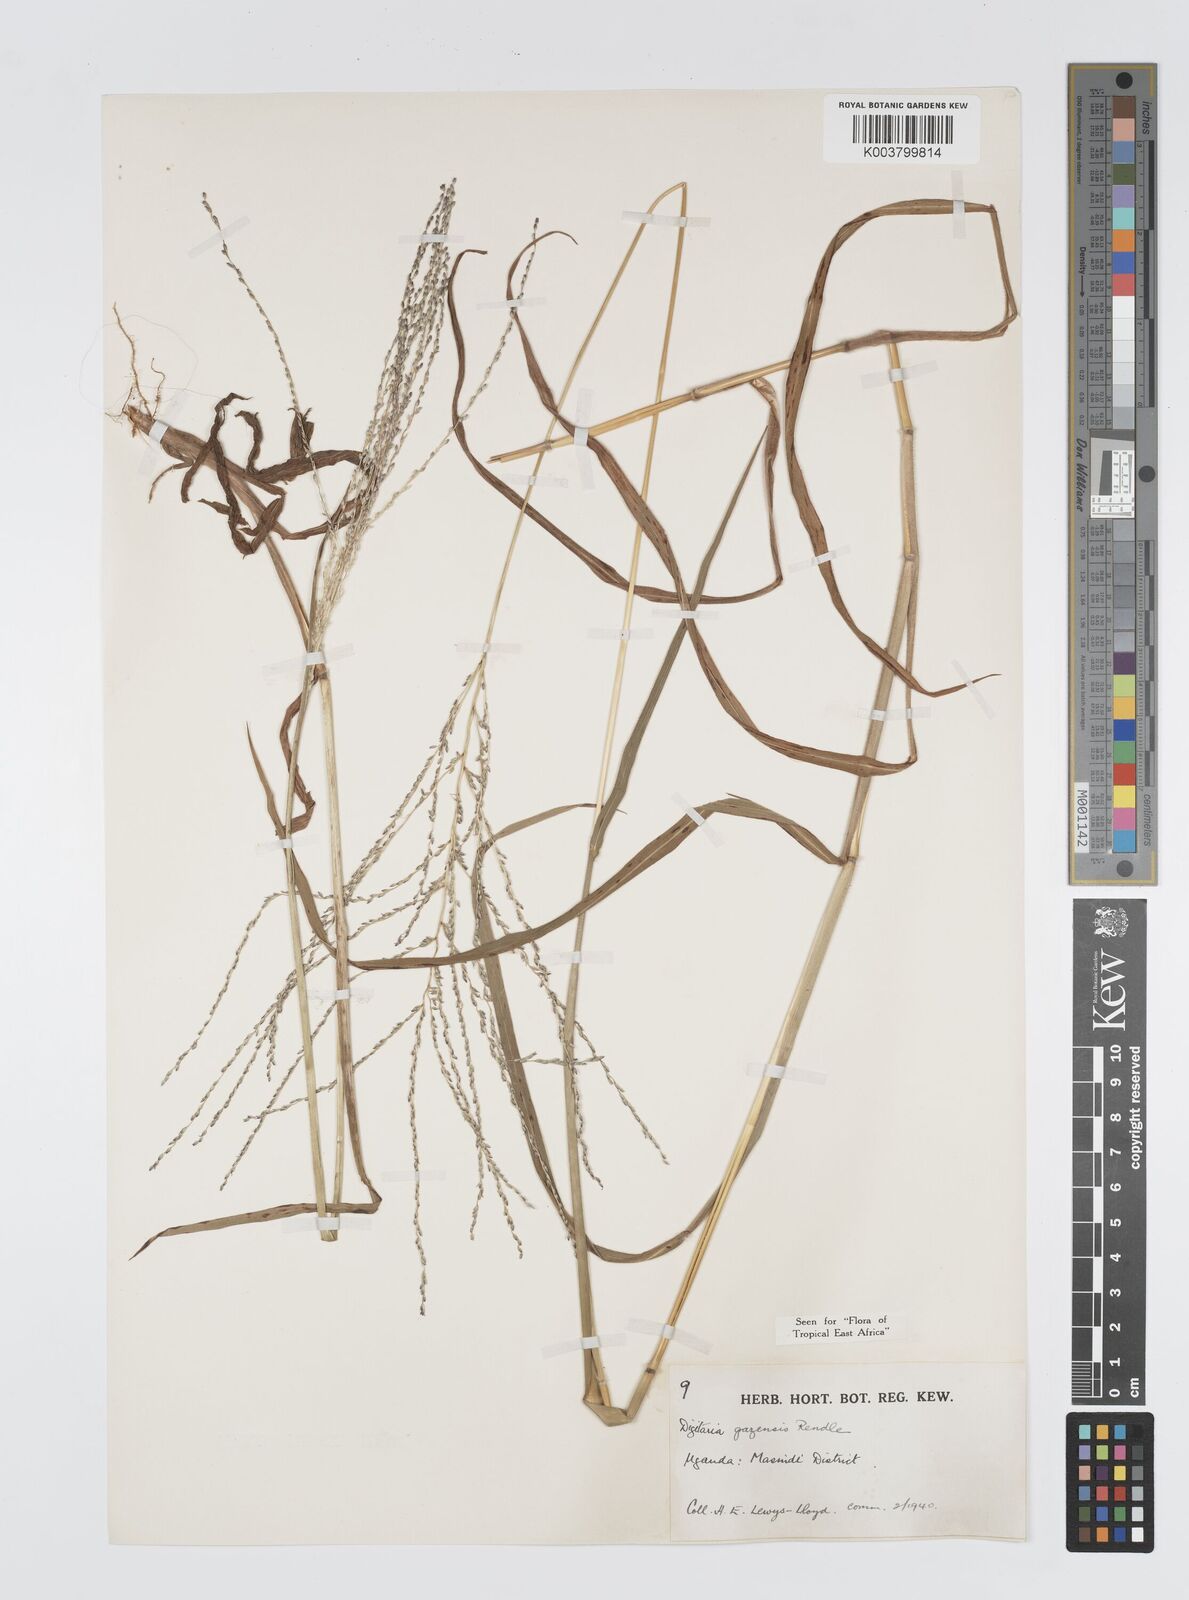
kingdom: Plantae
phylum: Tracheophyta
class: Liliopsida
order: Poales
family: Poaceae
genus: Digitaria
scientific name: Digitaria gazensis
